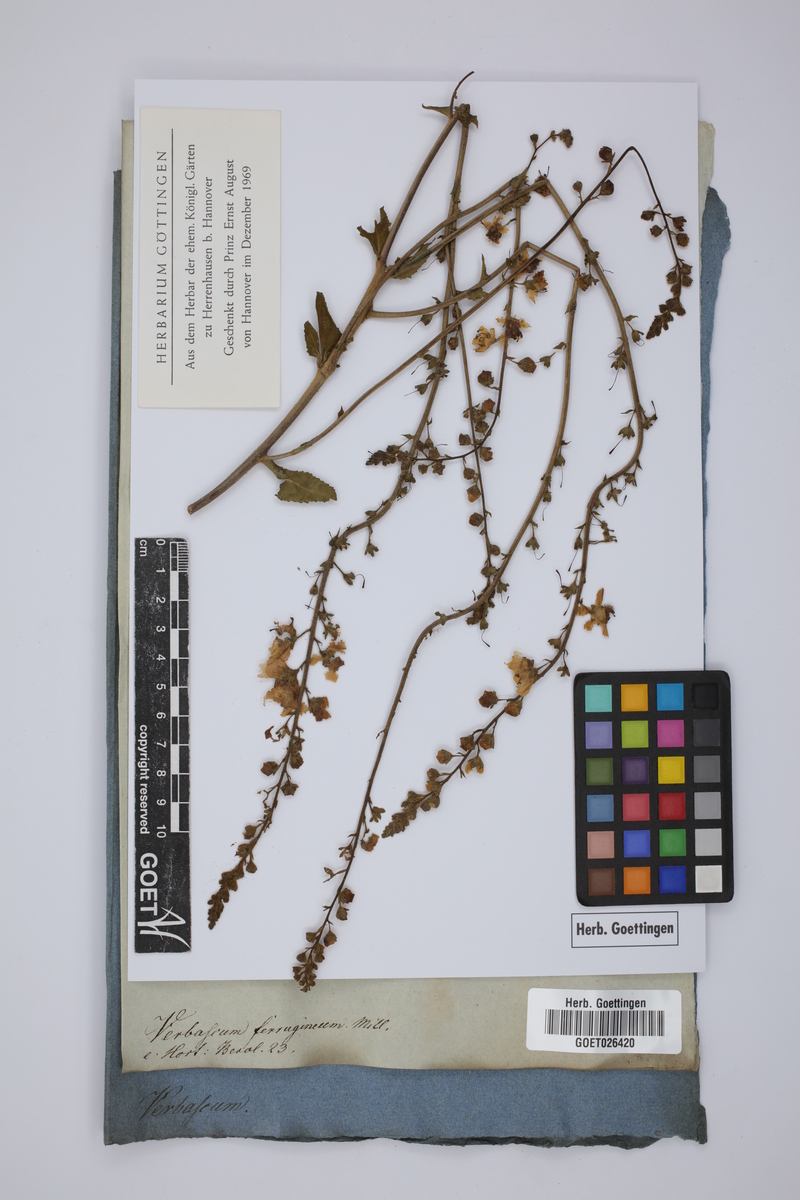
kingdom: Plantae
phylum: Tracheophyta
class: Magnoliopsida
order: Lamiales
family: Scrophulariaceae
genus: Verbascum
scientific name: Verbascum ferrugineum
